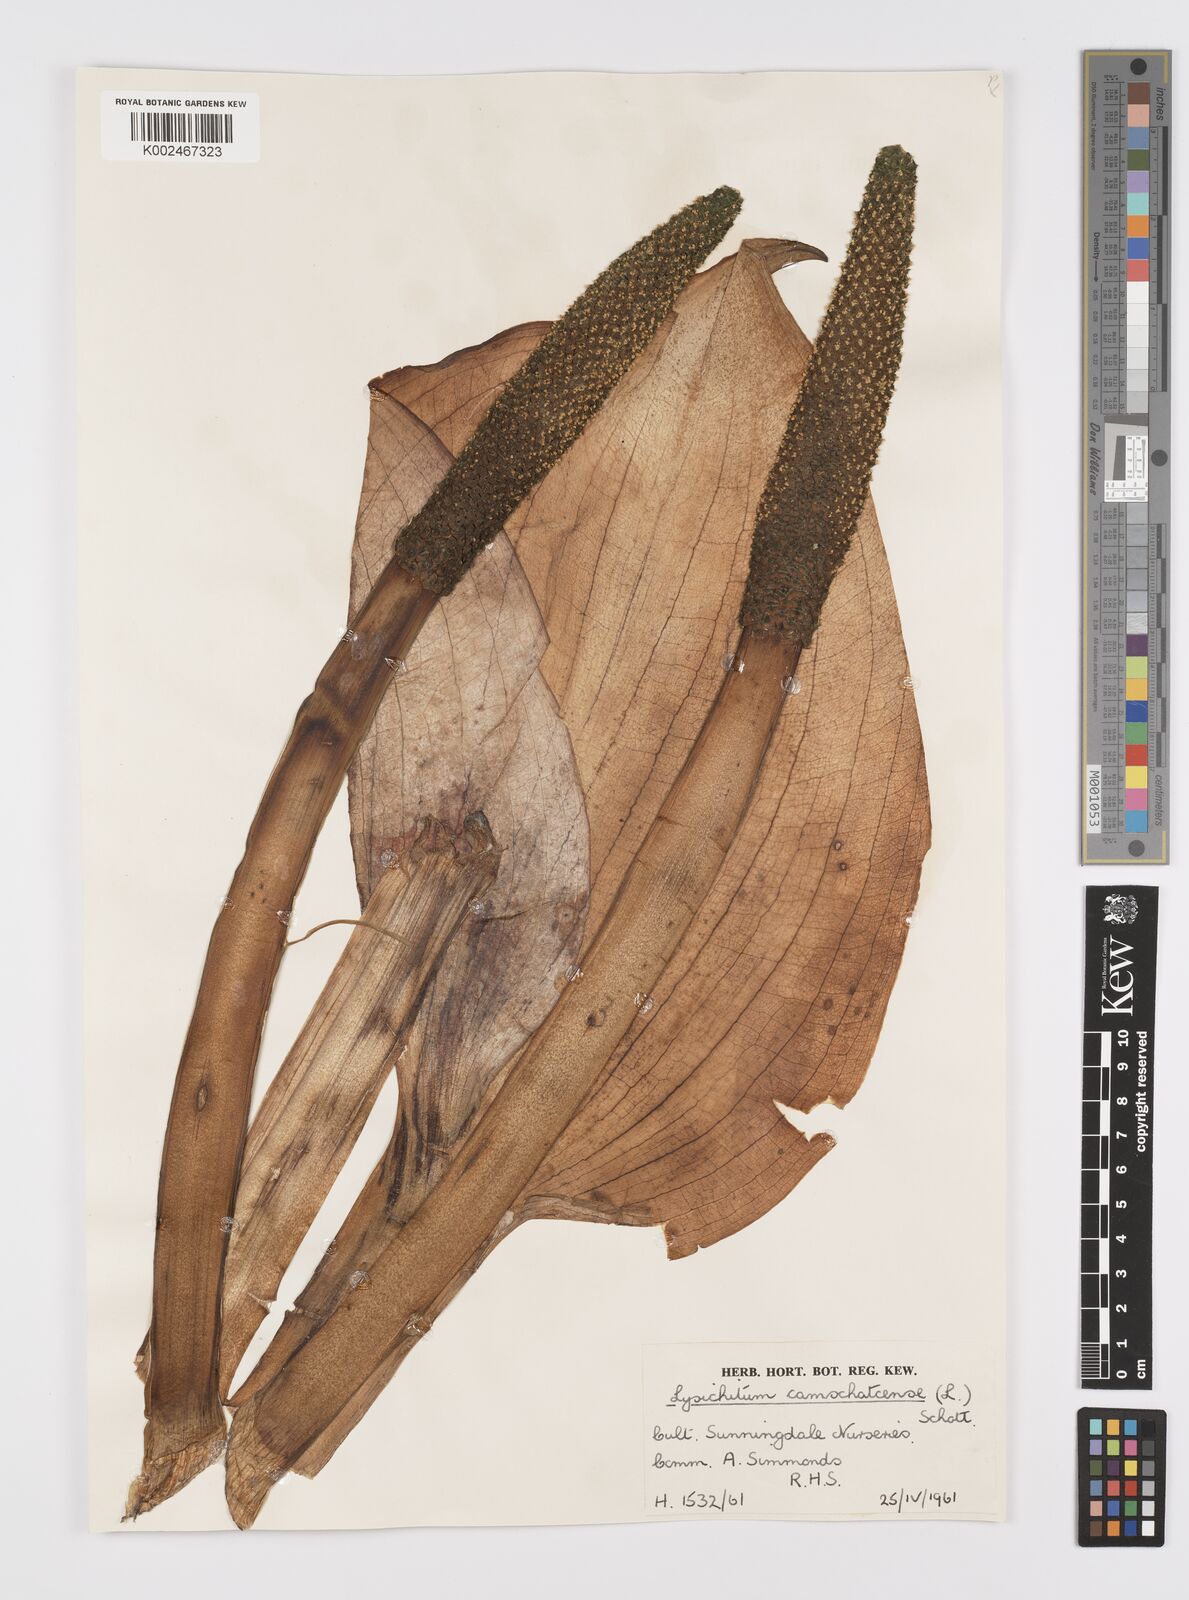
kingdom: Plantae
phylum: Tracheophyta
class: Liliopsida
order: Alismatales
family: Araceae
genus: Lysichiton
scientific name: Lysichiton americanus
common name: American skunk cabbage
